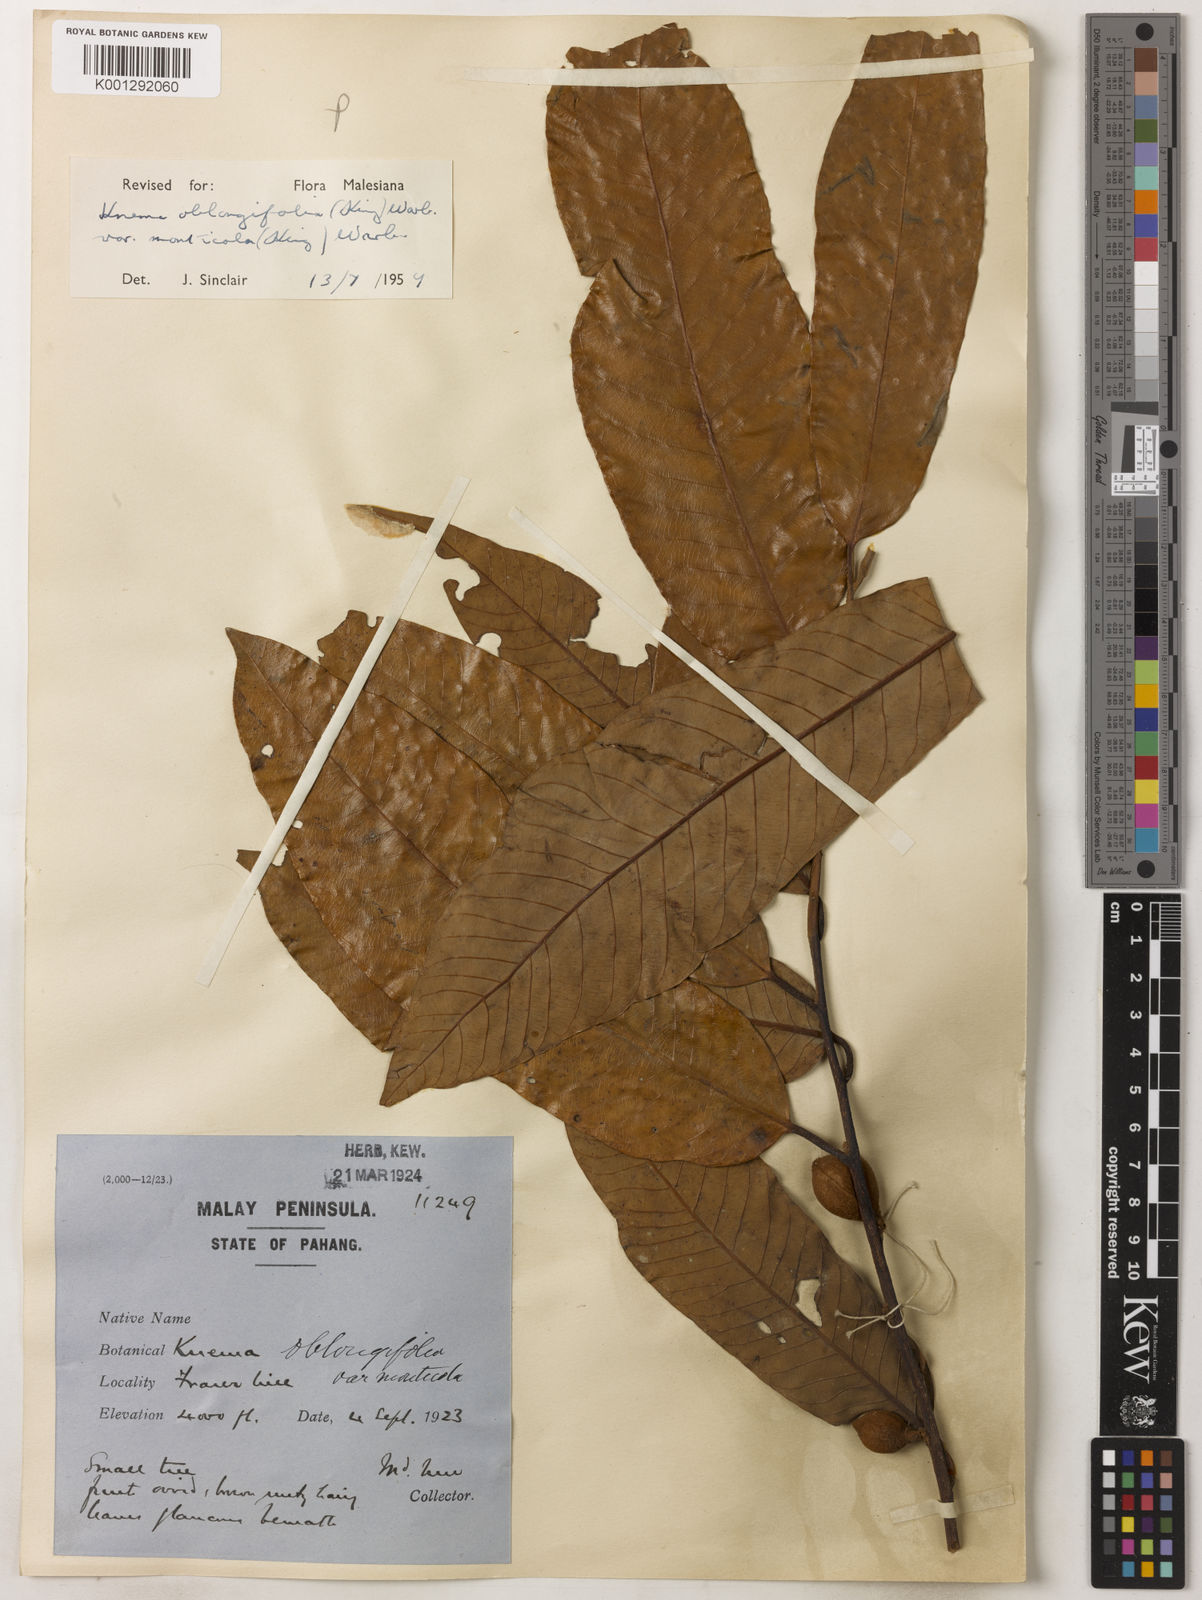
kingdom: Plantae
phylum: Tracheophyta
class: Magnoliopsida
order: Magnoliales
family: Myristicaceae
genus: Knema
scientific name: Knema
